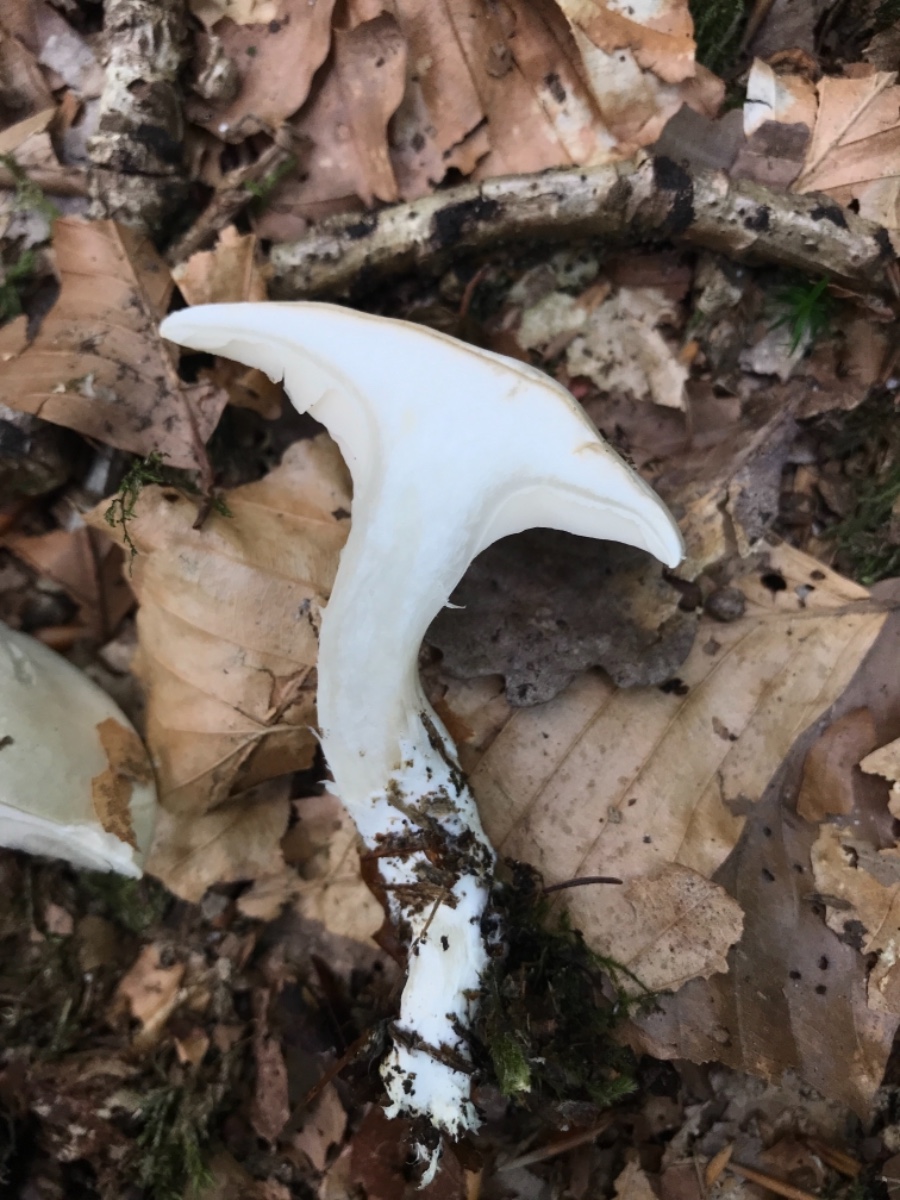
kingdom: Fungi
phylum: Basidiomycota
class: Agaricomycetes
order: Agaricales
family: Entolomataceae
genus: Clitopilus
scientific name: Clitopilus prunulus
